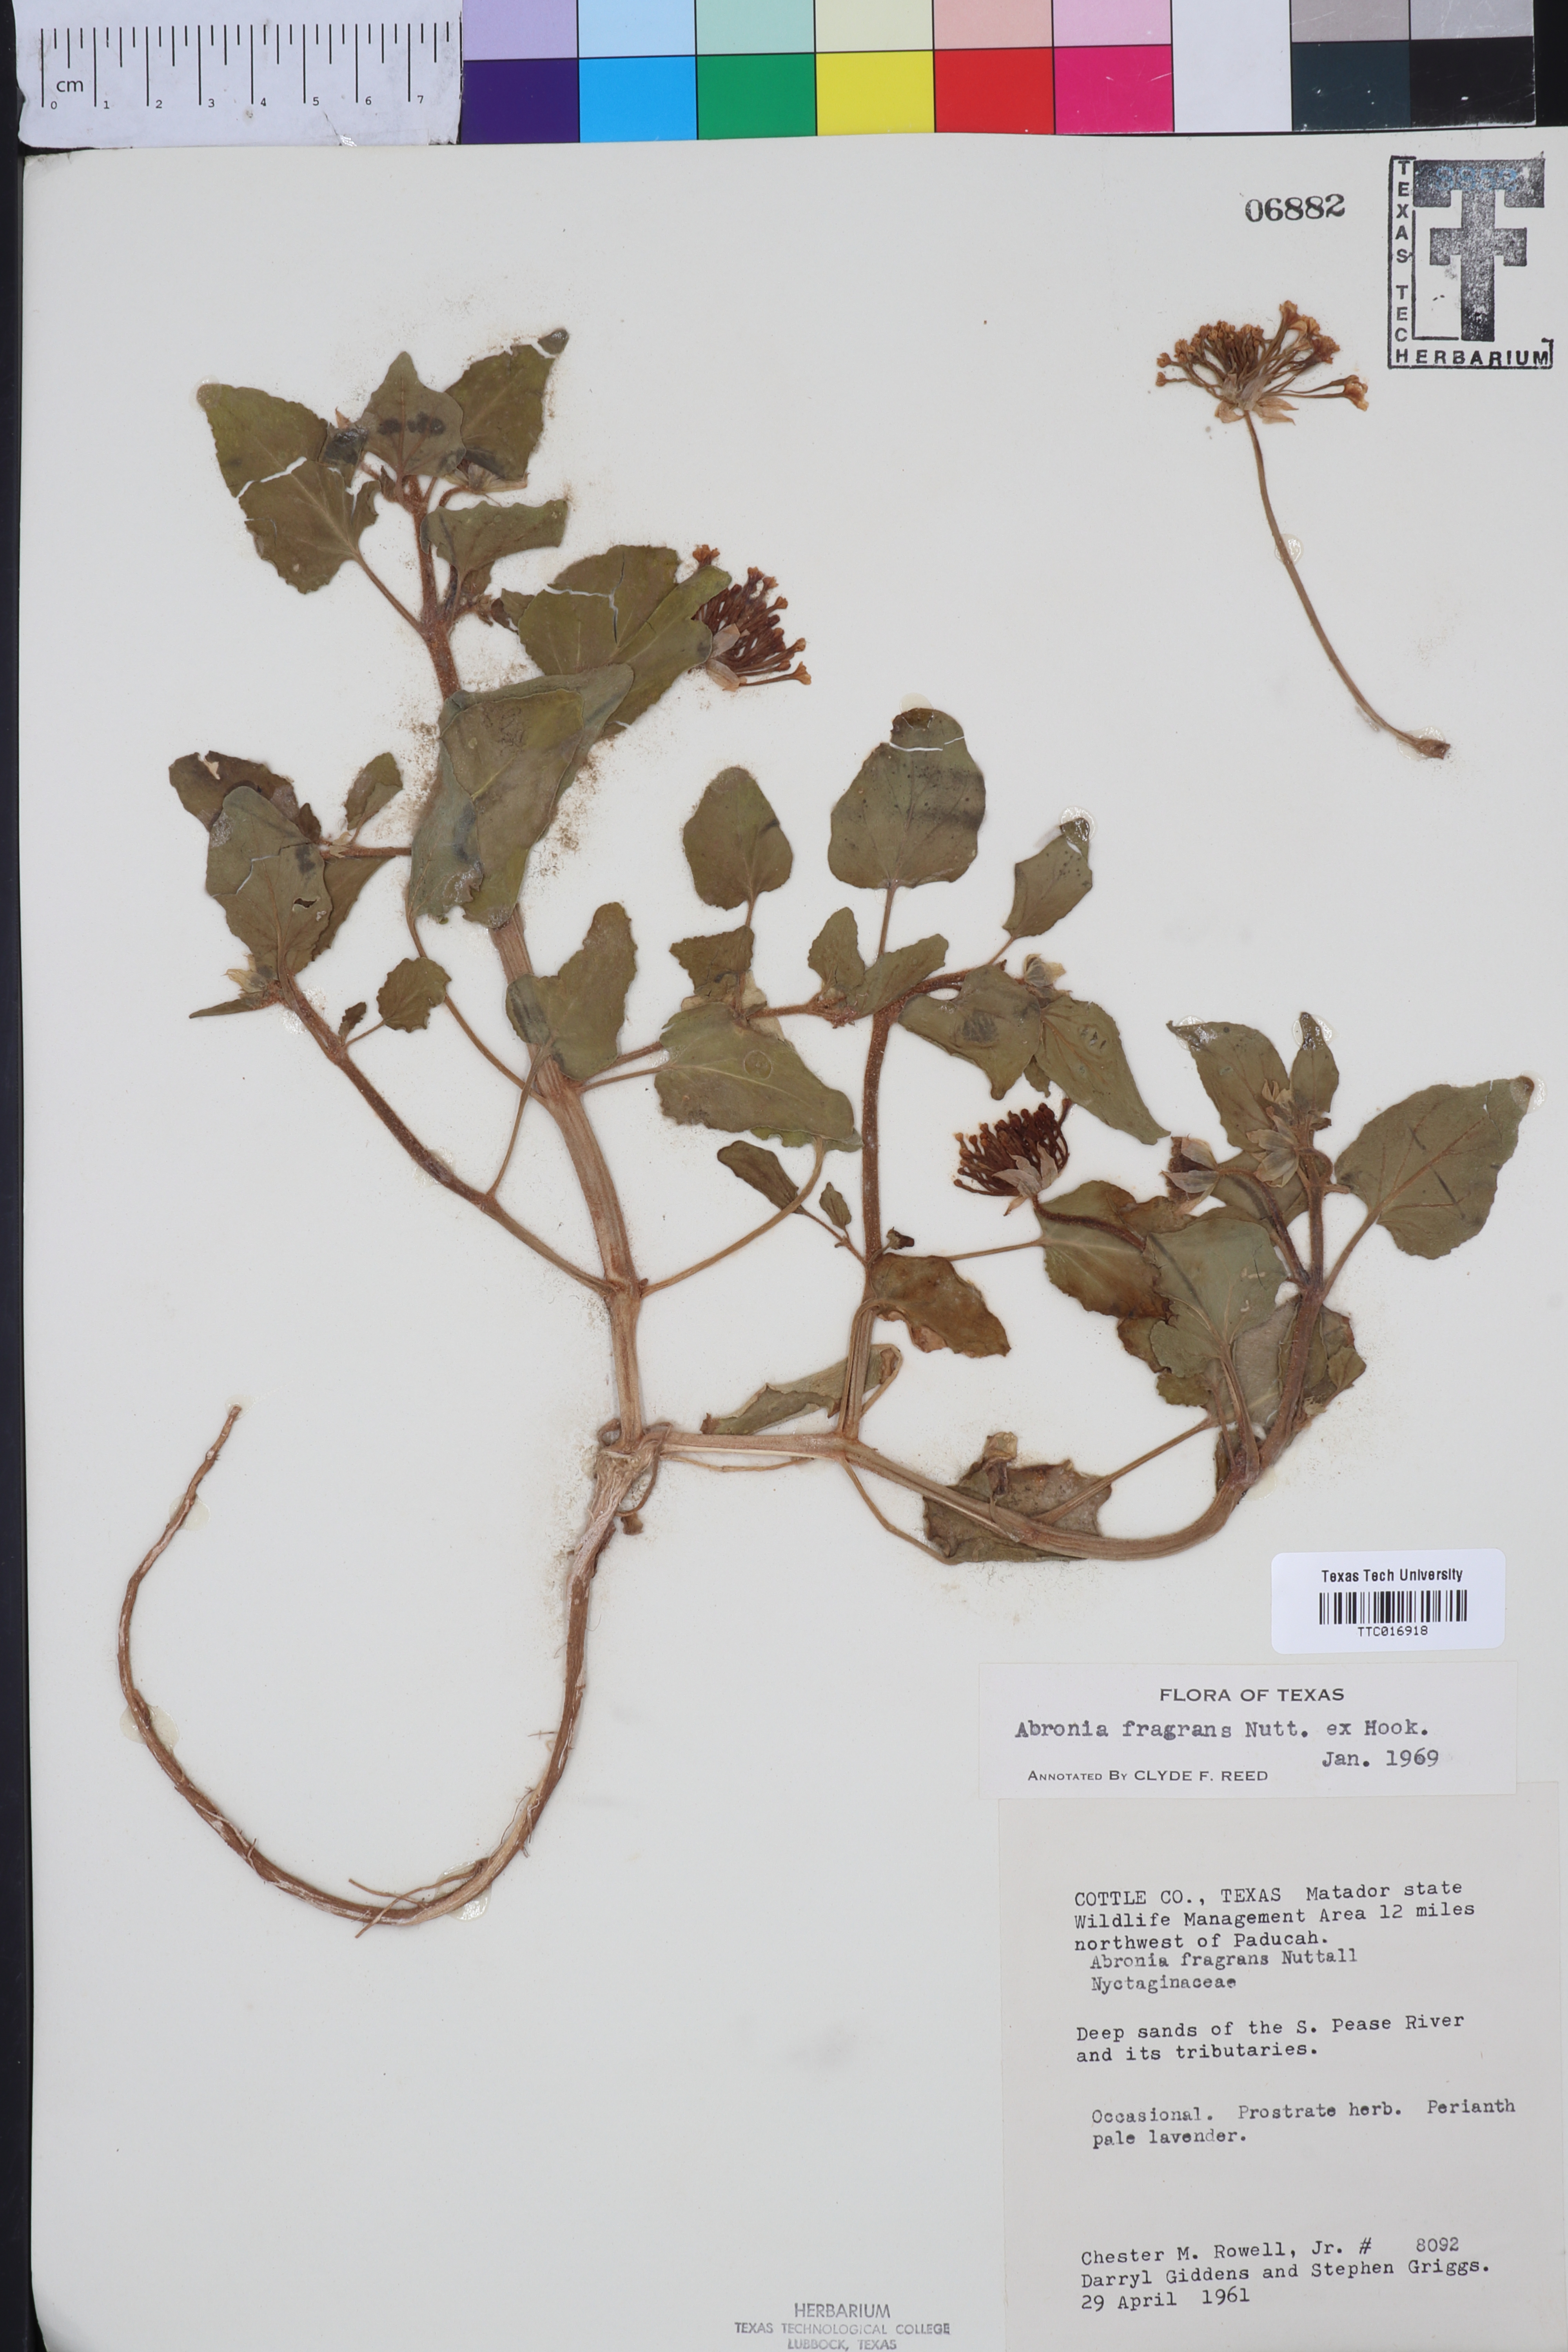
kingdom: Plantae
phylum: Tracheophyta
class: Magnoliopsida
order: Caryophyllales
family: Nyctaginaceae
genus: Abronia
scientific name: Abronia fragrans
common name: Fragrant sand-verbena
